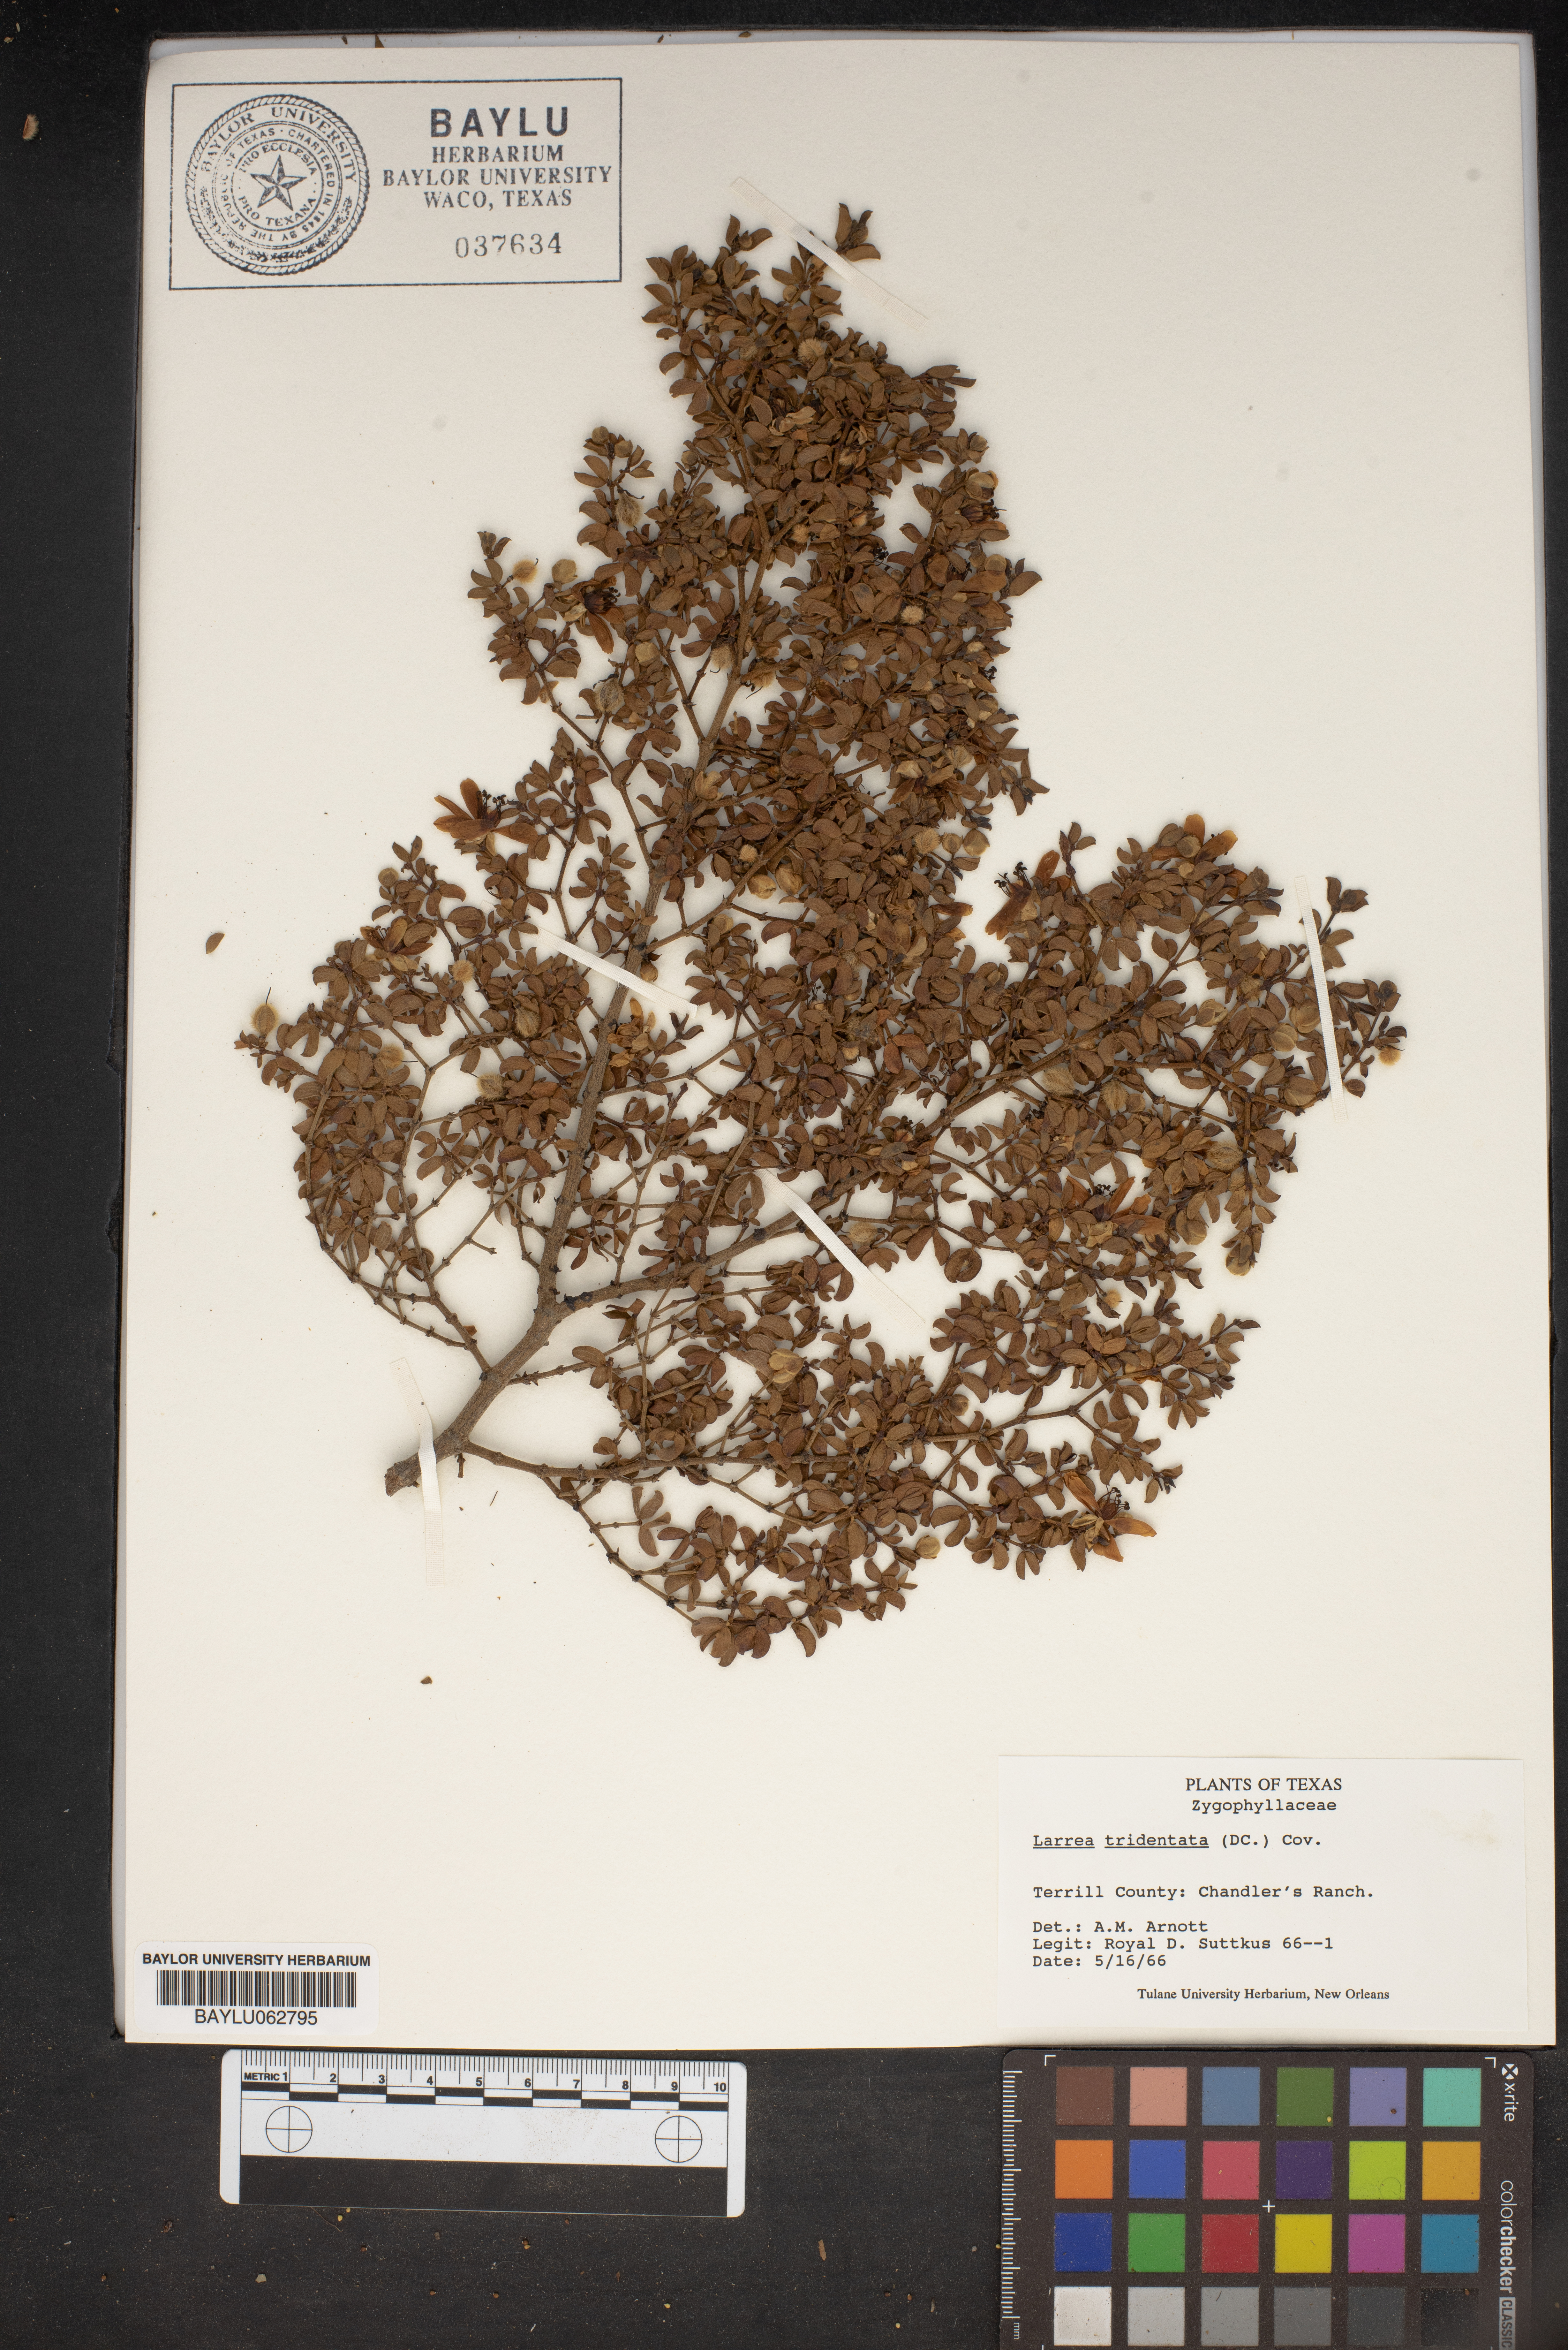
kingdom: Plantae
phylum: Tracheophyta
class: Magnoliopsida
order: Zygophyllales
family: Zygophyllaceae
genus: Larrea
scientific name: Larrea tridentata
